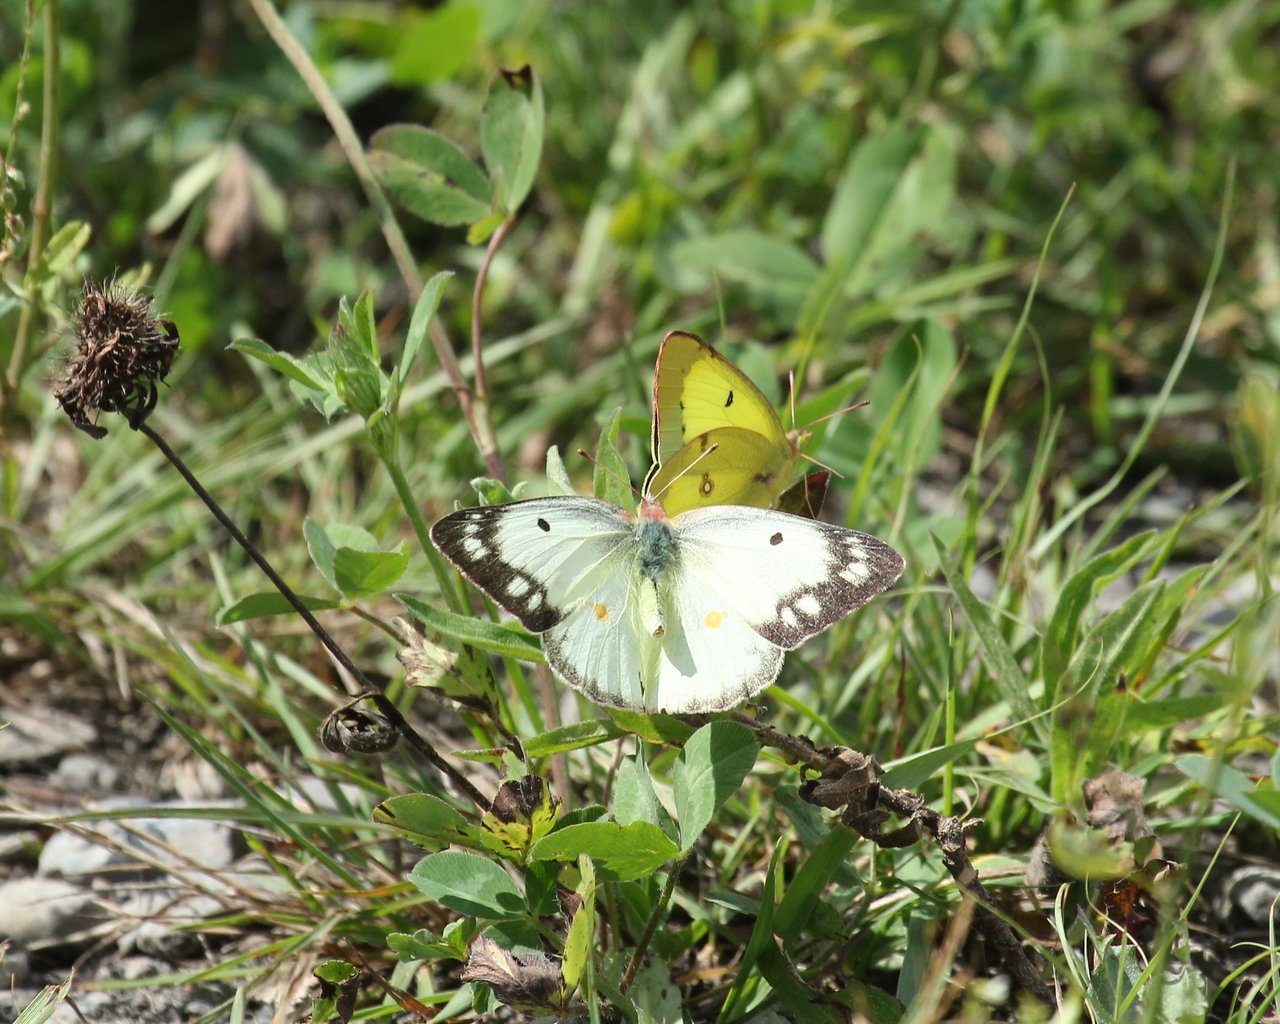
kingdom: Animalia
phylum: Arthropoda
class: Insecta
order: Lepidoptera
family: Pieridae
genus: Pieris
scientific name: Pieris rapae
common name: Cabbage White
